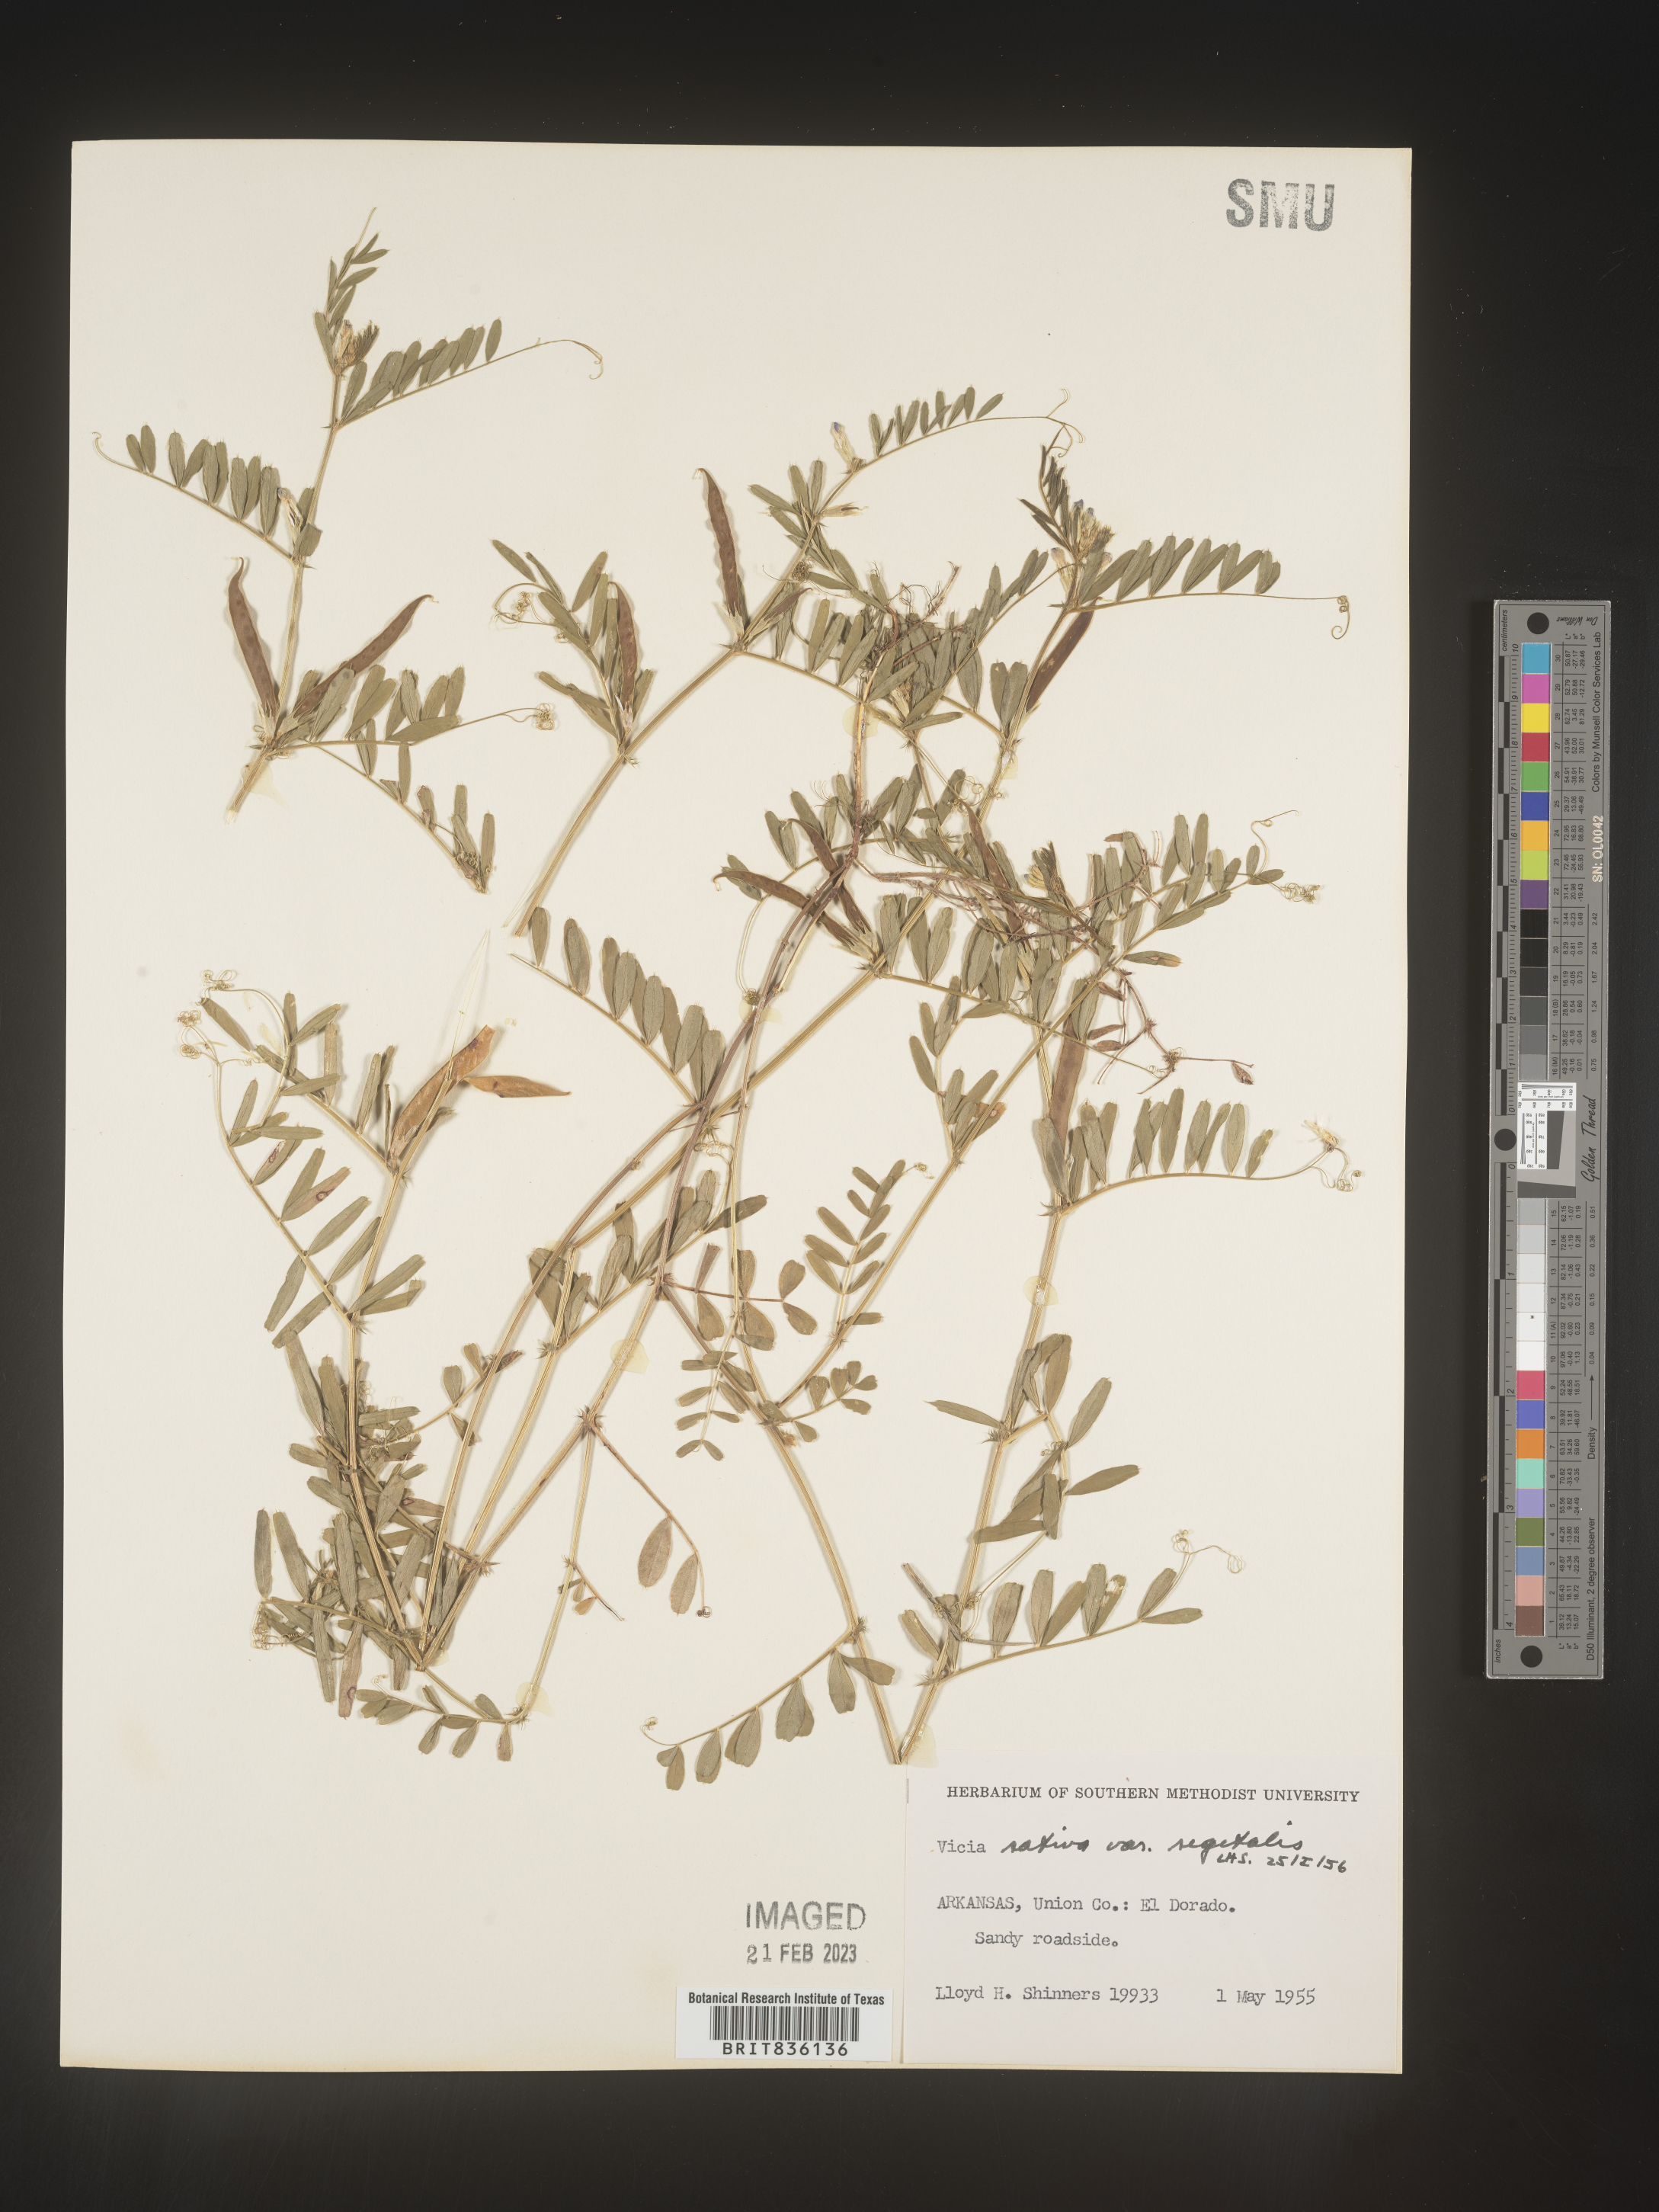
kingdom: Plantae
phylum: Tracheophyta
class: Magnoliopsida
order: Fabales
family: Fabaceae
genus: Vicia
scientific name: Vicia sativa
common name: Garden vetch
